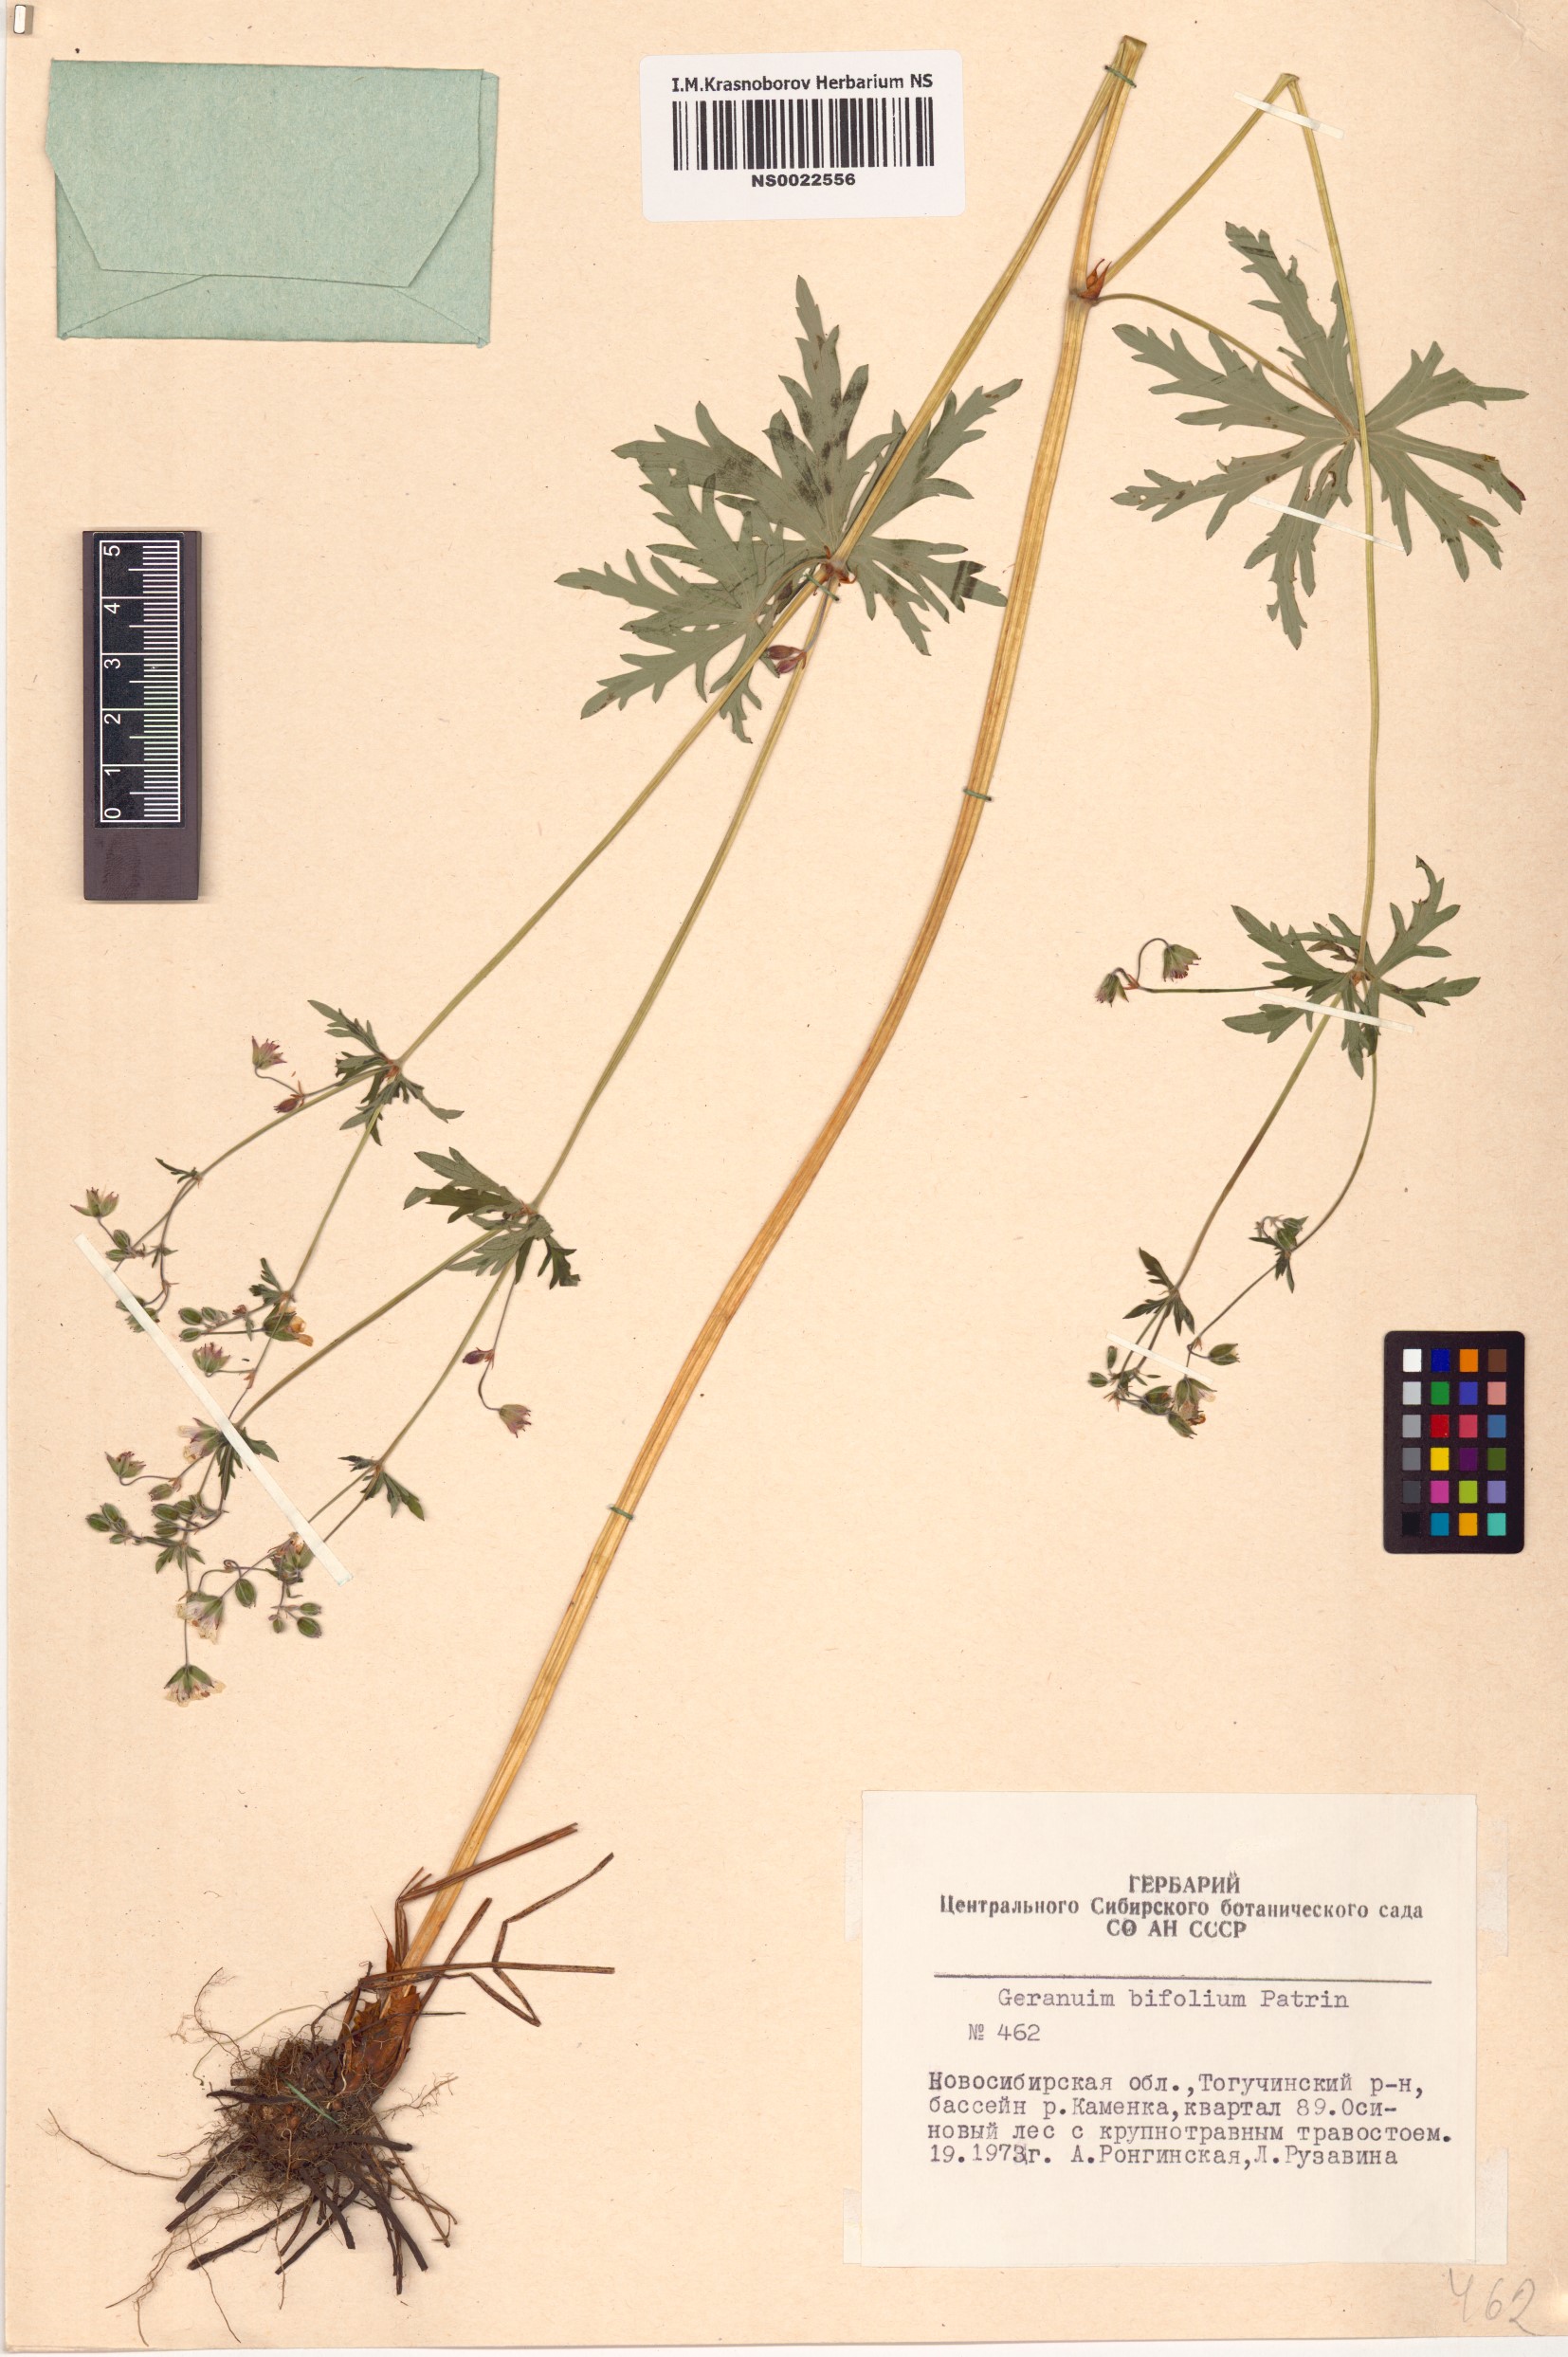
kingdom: Plantae
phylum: Tracheophyta
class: Magnoliopsida
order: Geraniales
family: Geraniaceae
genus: Geranium
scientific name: Geranium pseudosibiricum
